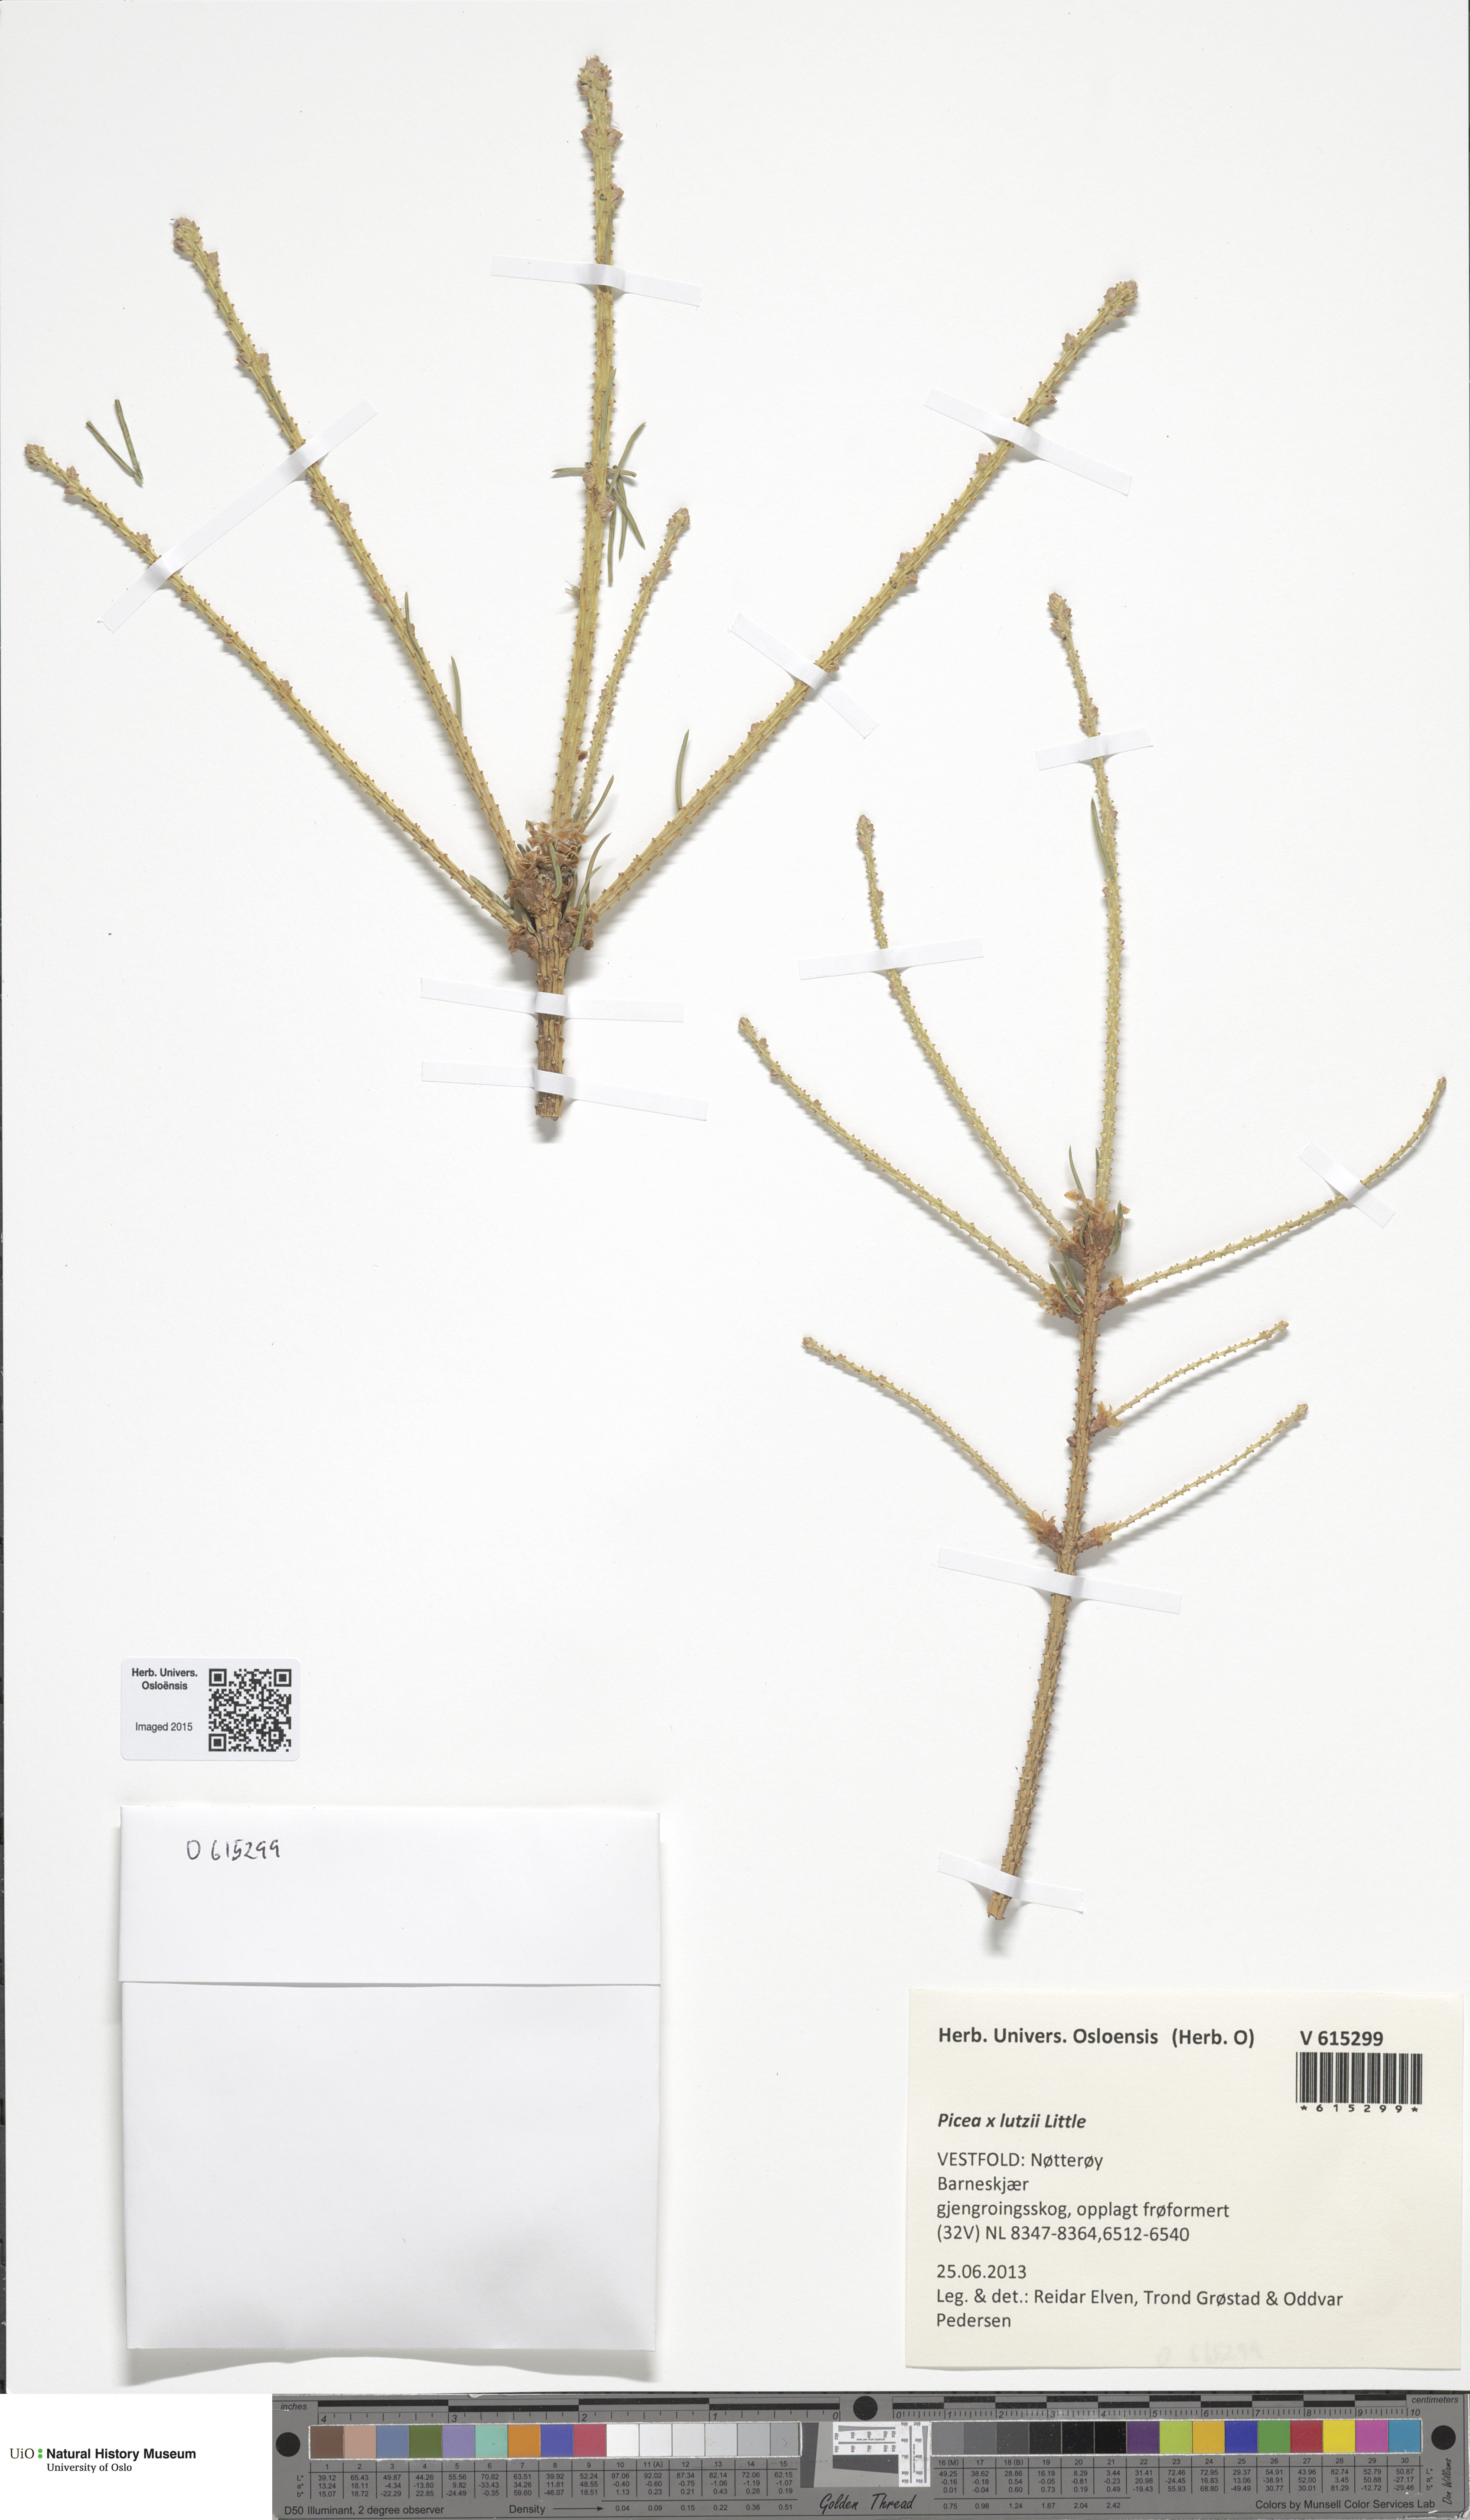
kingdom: Plantae
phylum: Tracheophyta
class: Pinopsida
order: Pinales
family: Pinaceae
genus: Picea
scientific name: Picea lutzii
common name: Lutz spruce
